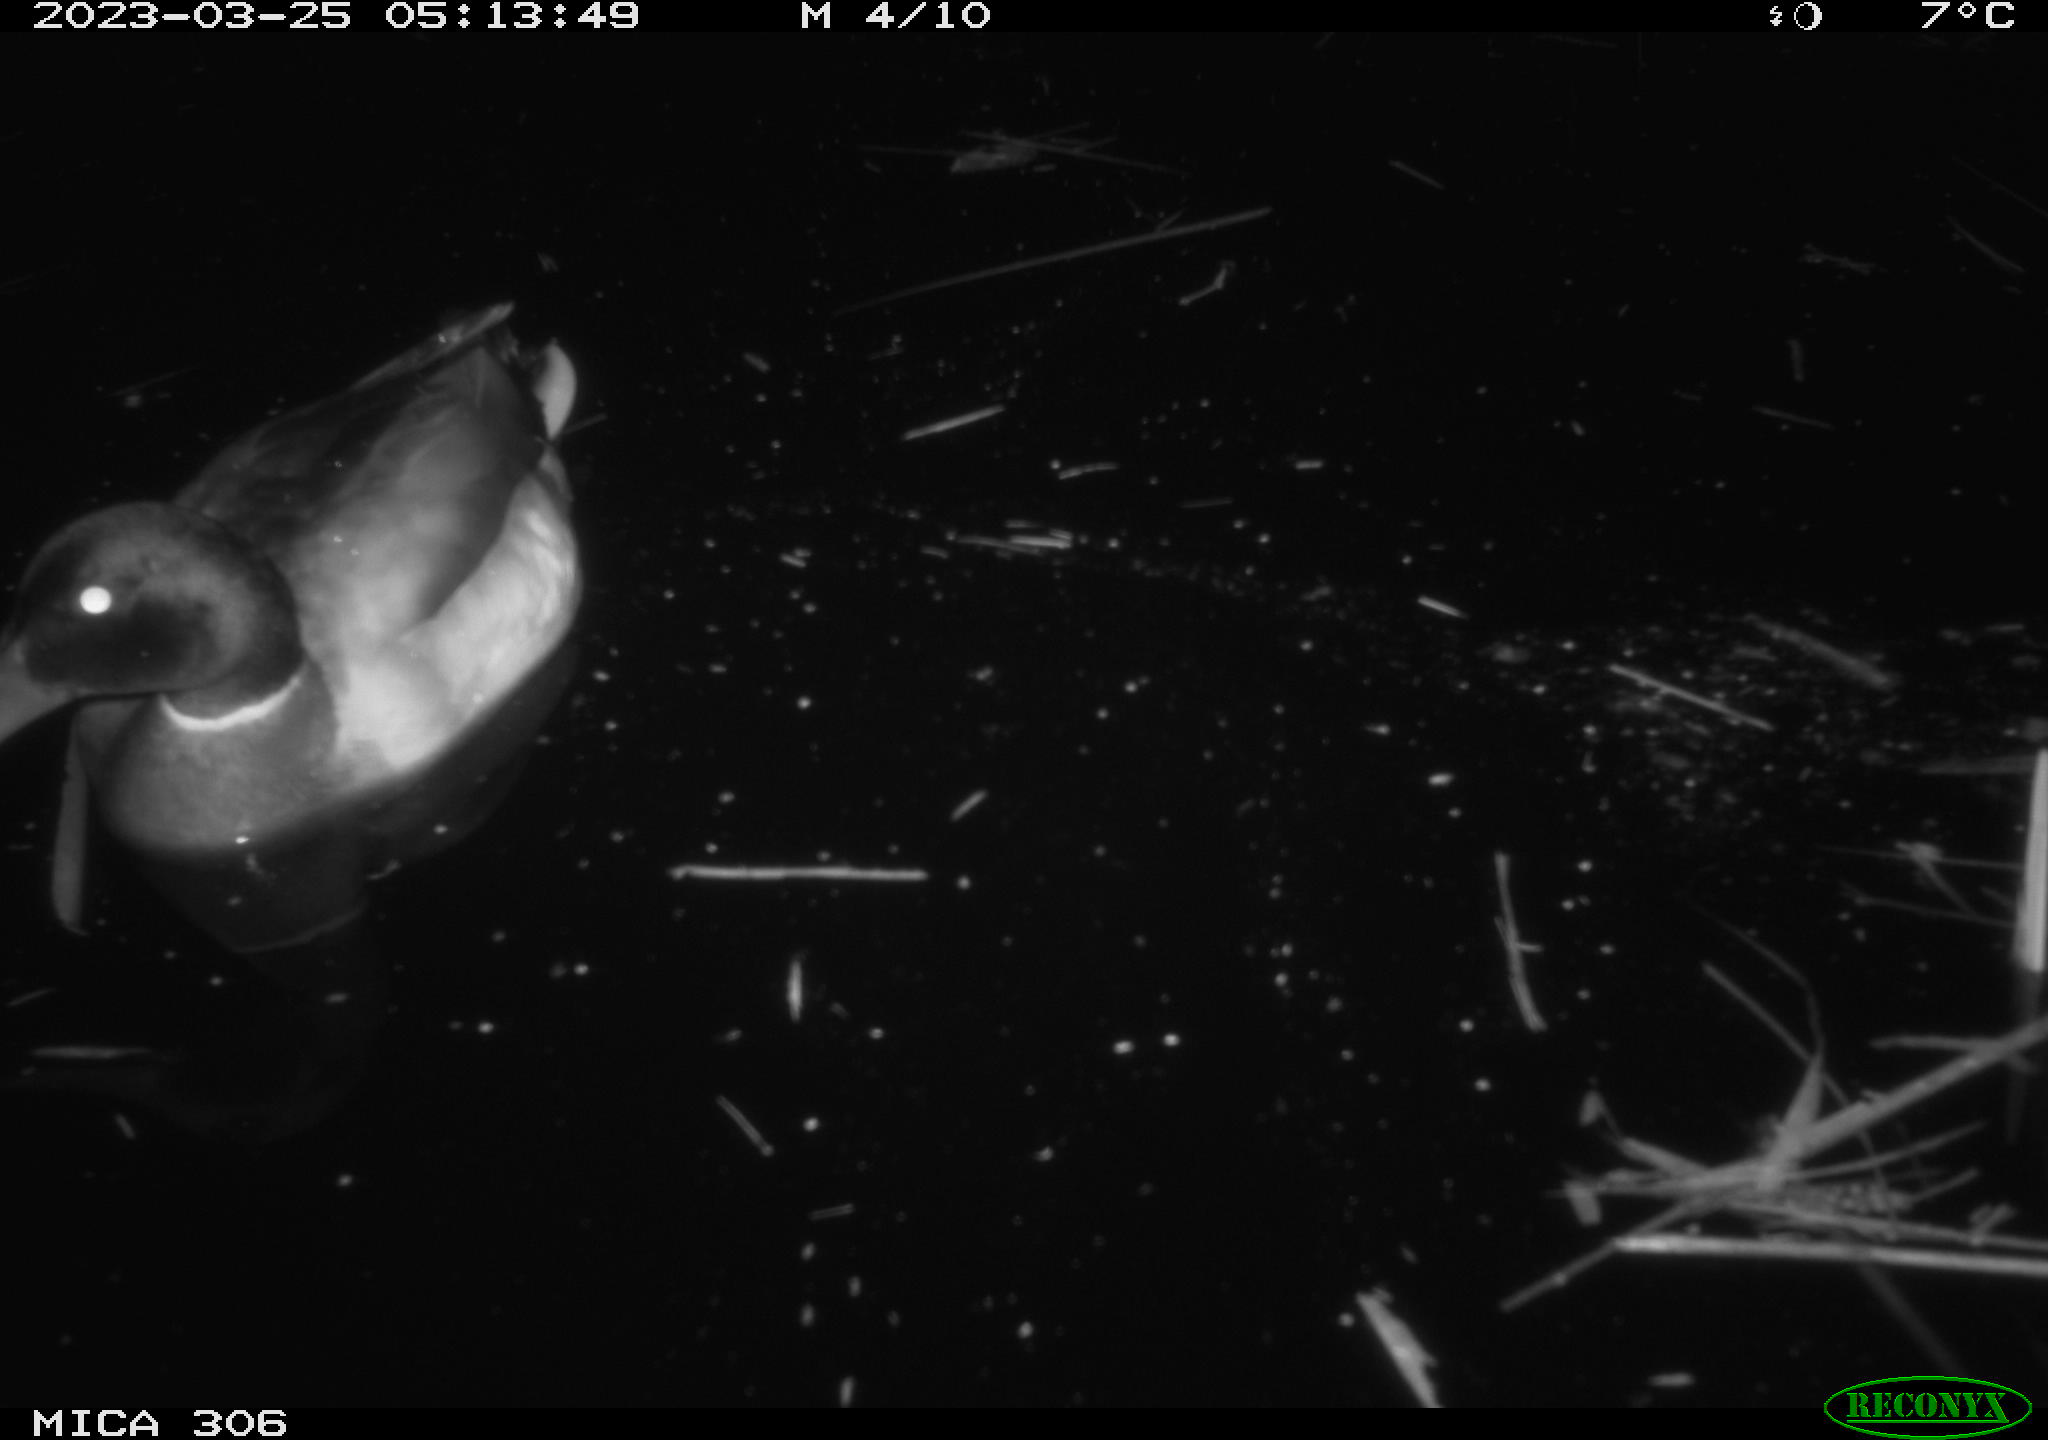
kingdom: Animalia
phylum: Chordata
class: Aves
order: Anseriformes
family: Anatidae
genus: Anas
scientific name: Anas
